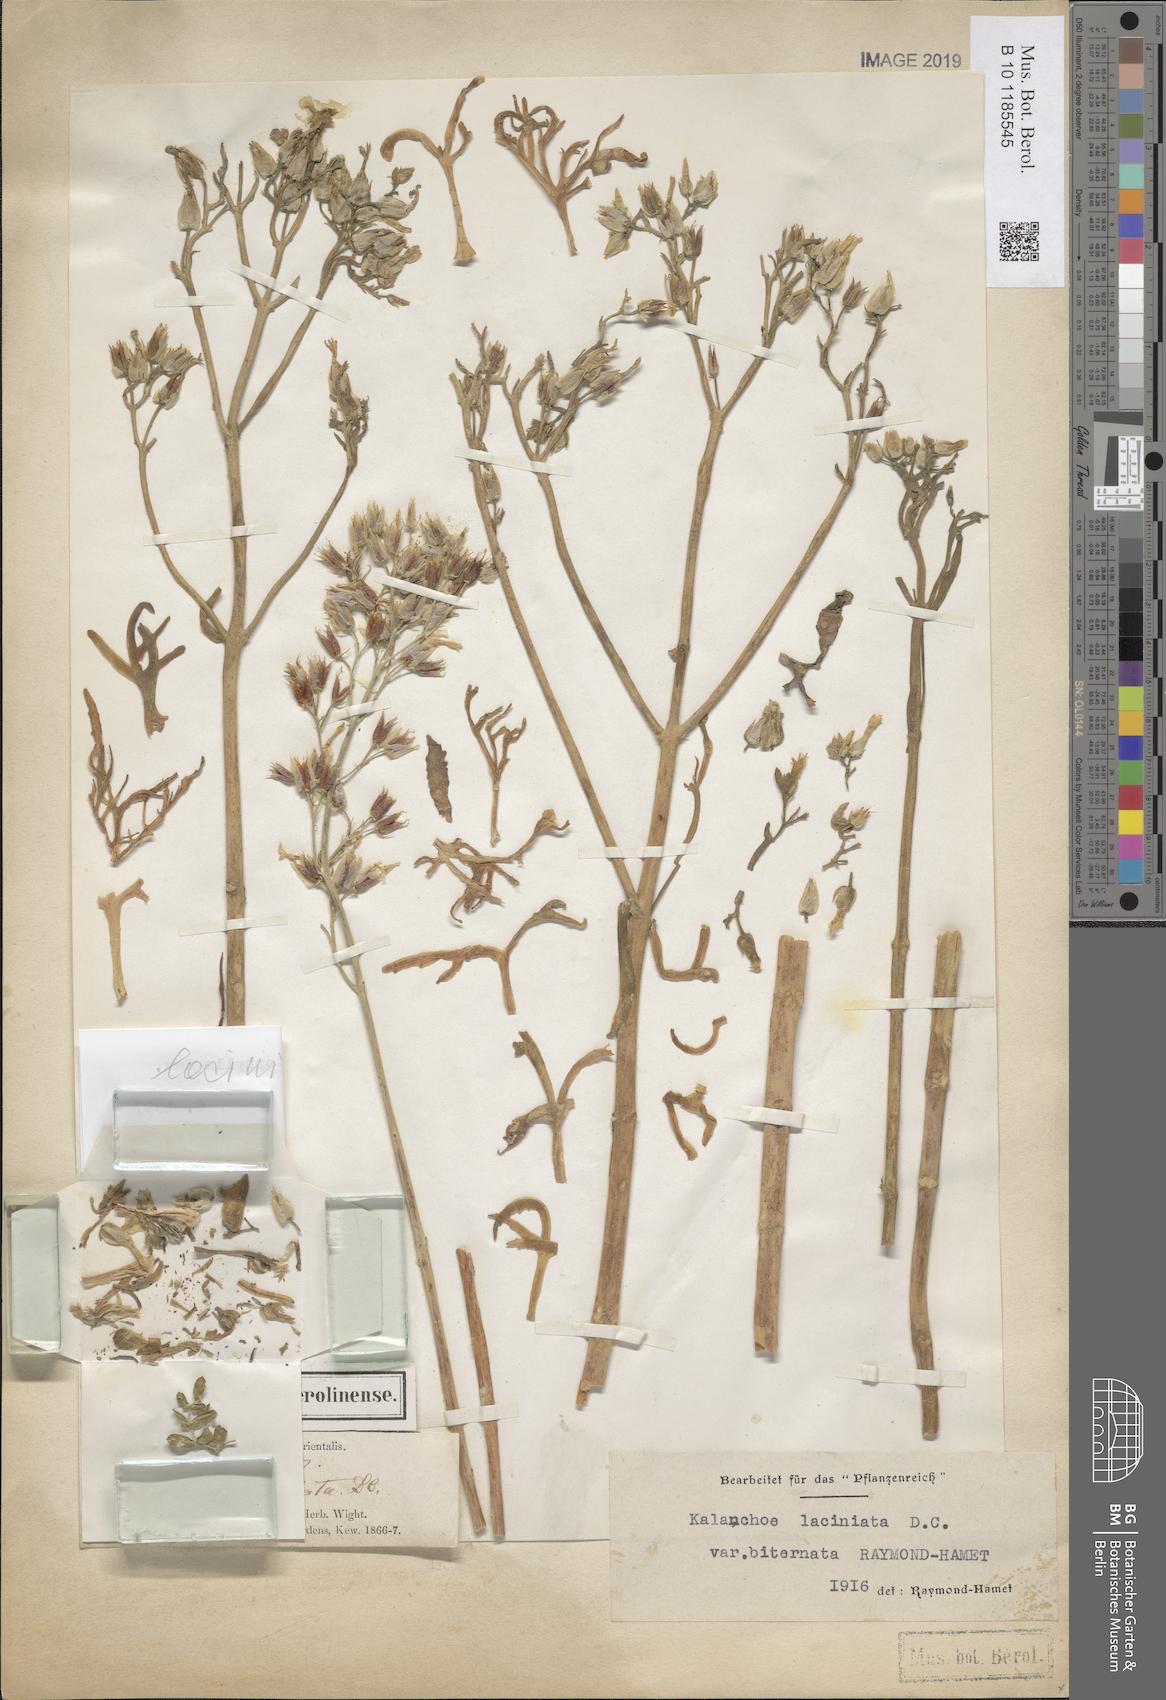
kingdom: Plantae
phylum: Tracheophyta
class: Magnoliopsida
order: Saxifragales
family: Crassulaceae
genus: Kalanchoe
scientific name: Kalanchoe ceratophylla
